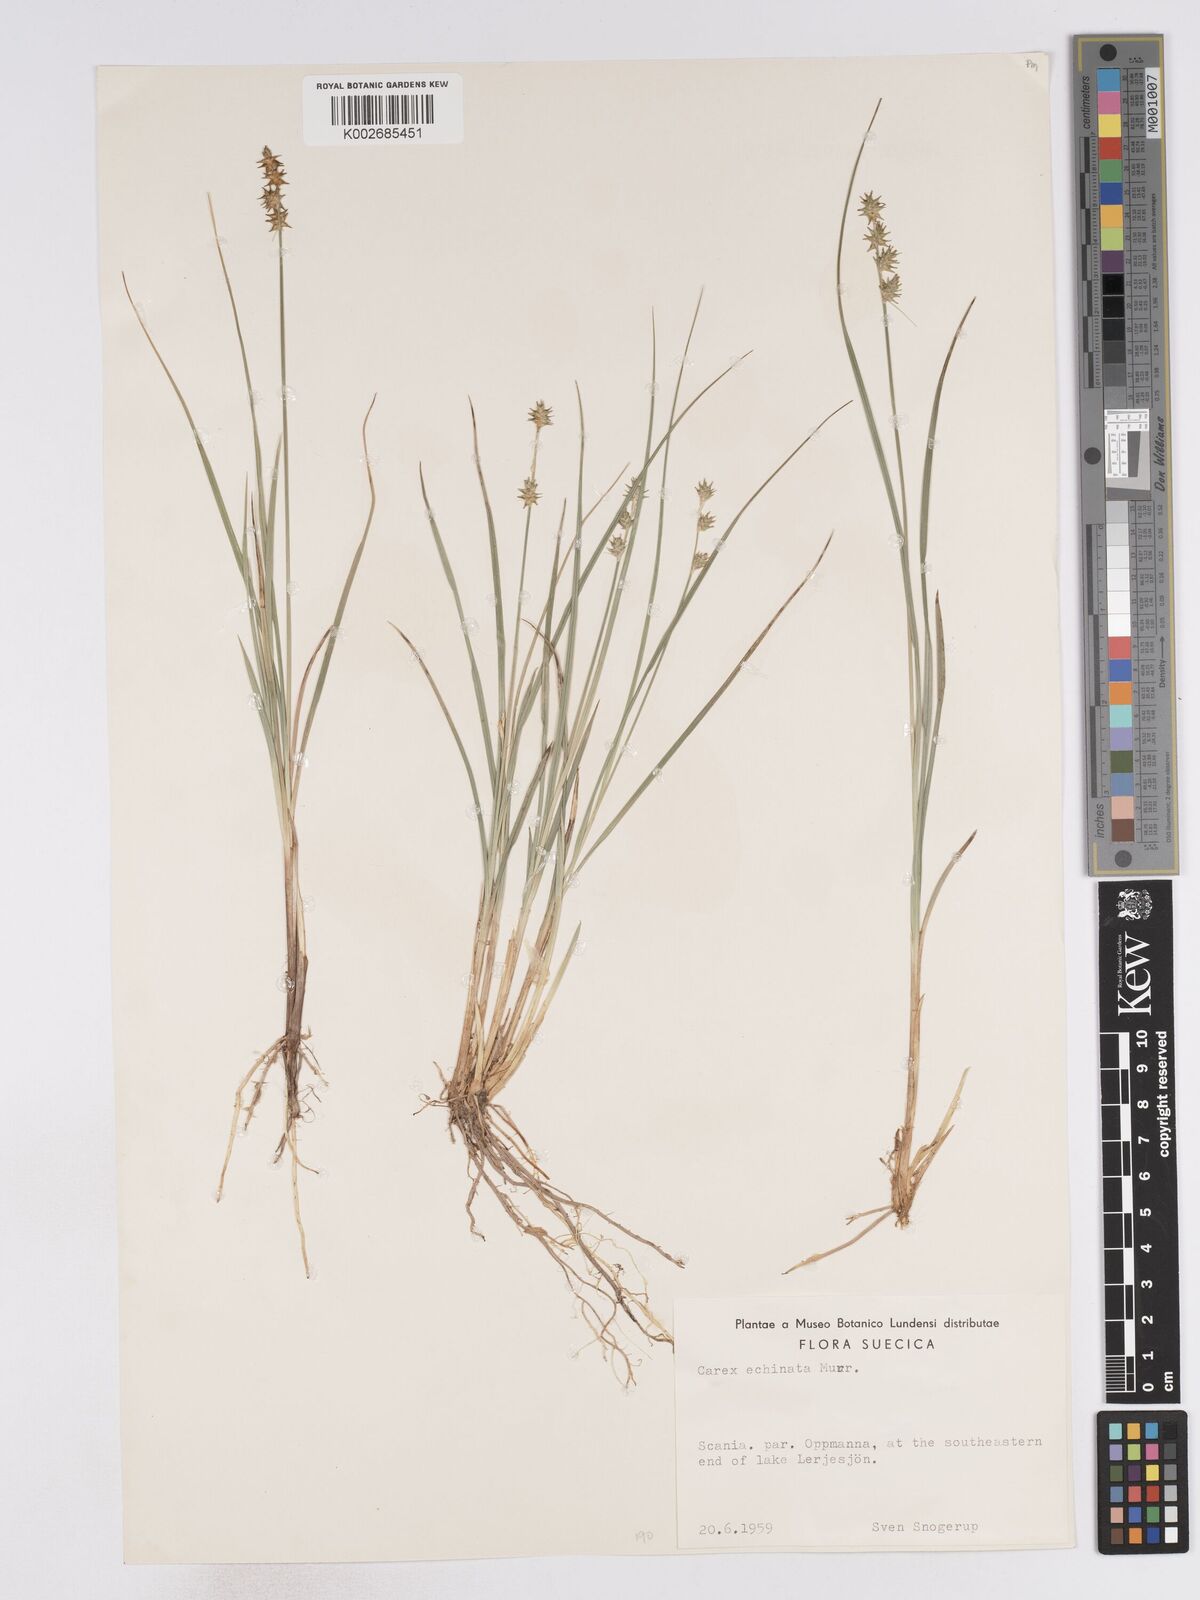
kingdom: Plantae
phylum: Tracheophyta
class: Liliopsida
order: Poales
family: Cyperaceae
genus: Carex
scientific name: Carex echinata
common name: Star sedge
